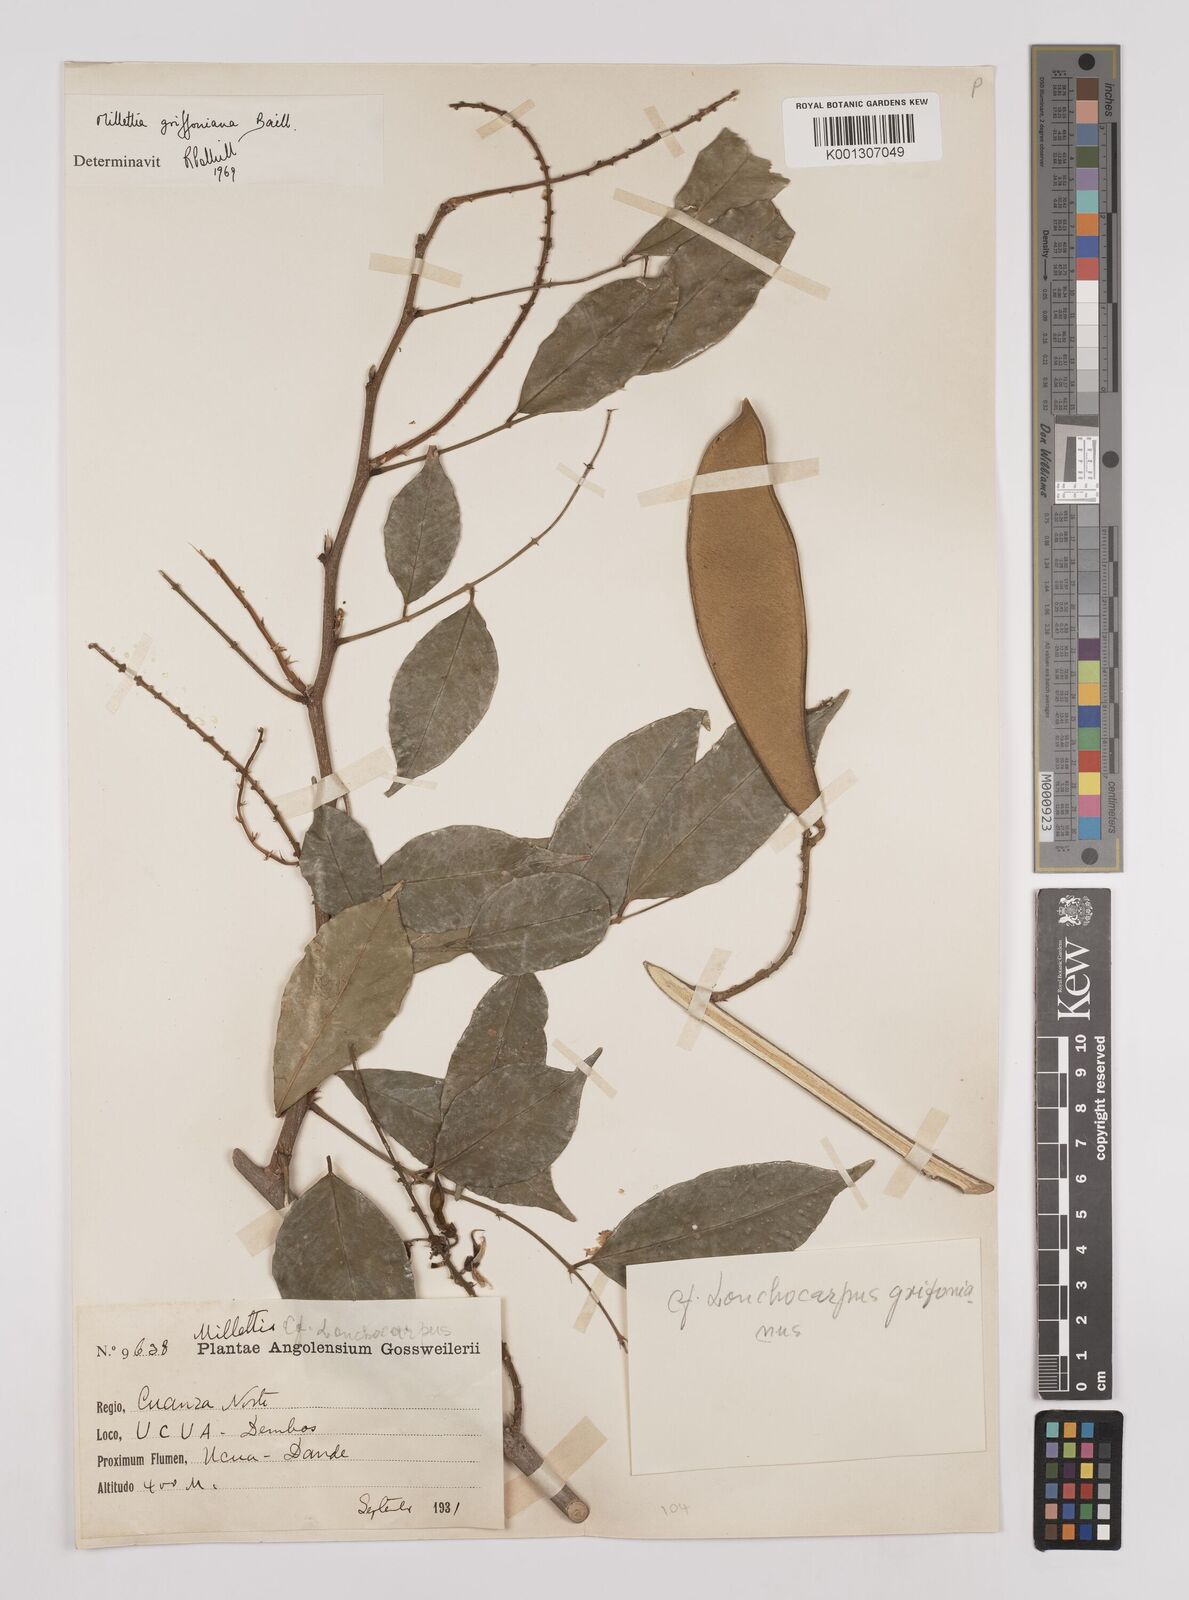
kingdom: Plantae
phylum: Tracheophyta
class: Magnoliopsida
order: Fabales
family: Fabaceae
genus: Millettia
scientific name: Millettia griffoniana
